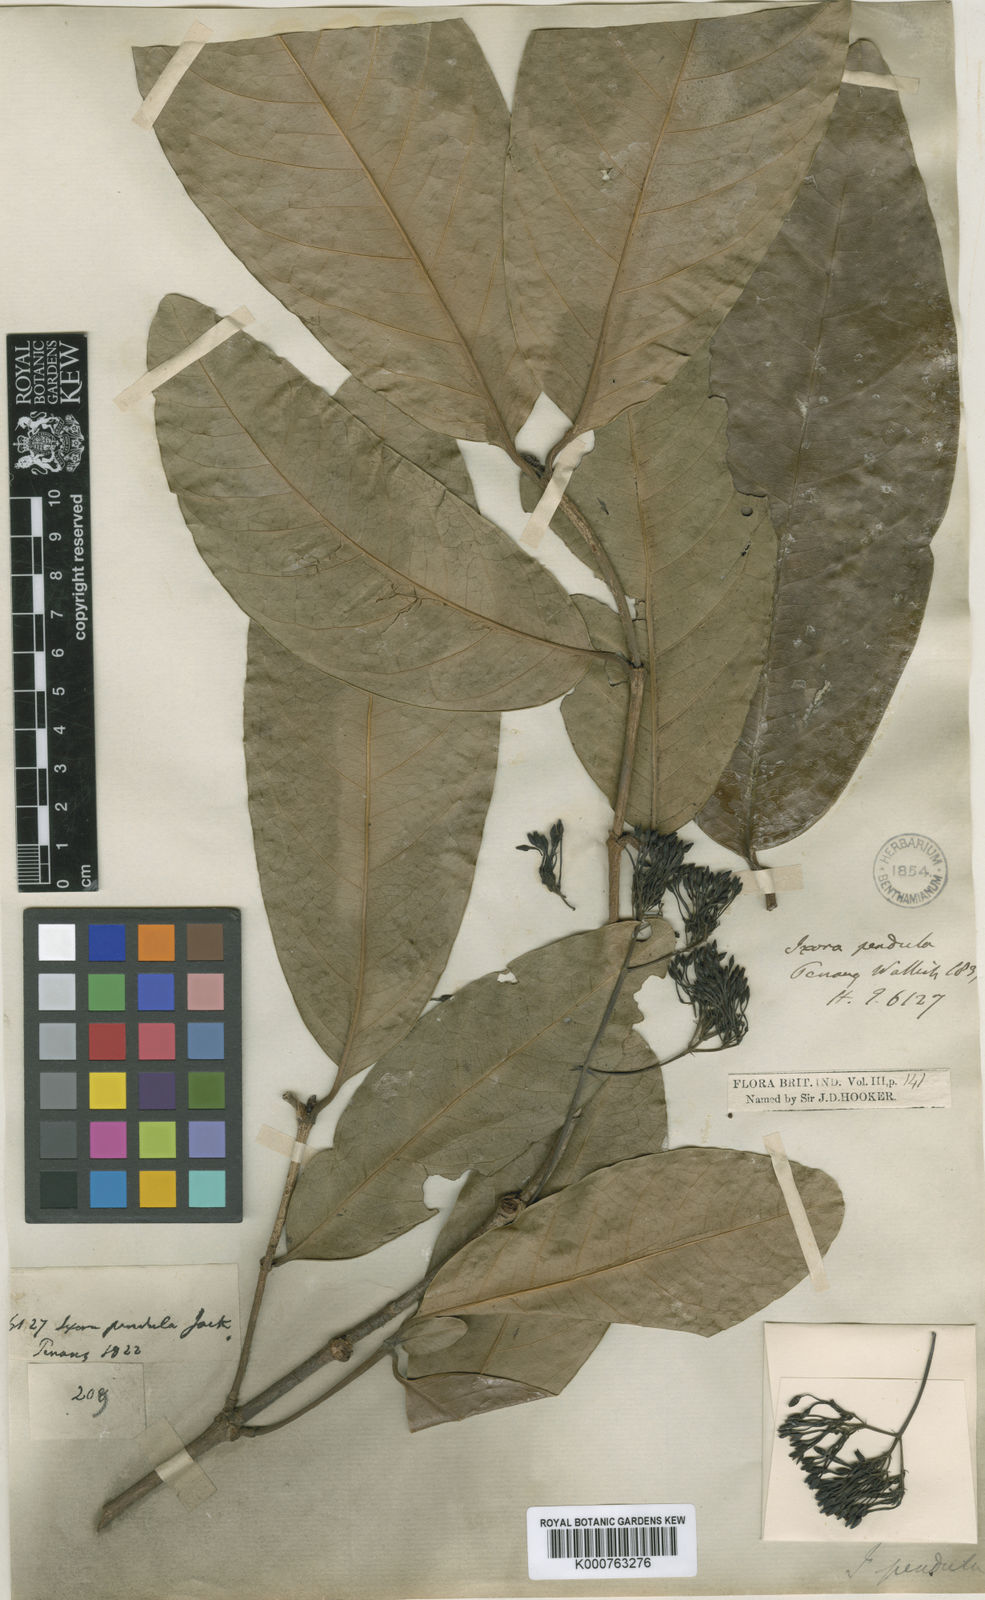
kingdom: Plantae
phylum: Tracheophyta
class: Magnoliopsida
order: Gentianales
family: Rubiaceae
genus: Ixora
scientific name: Ixora pendula
